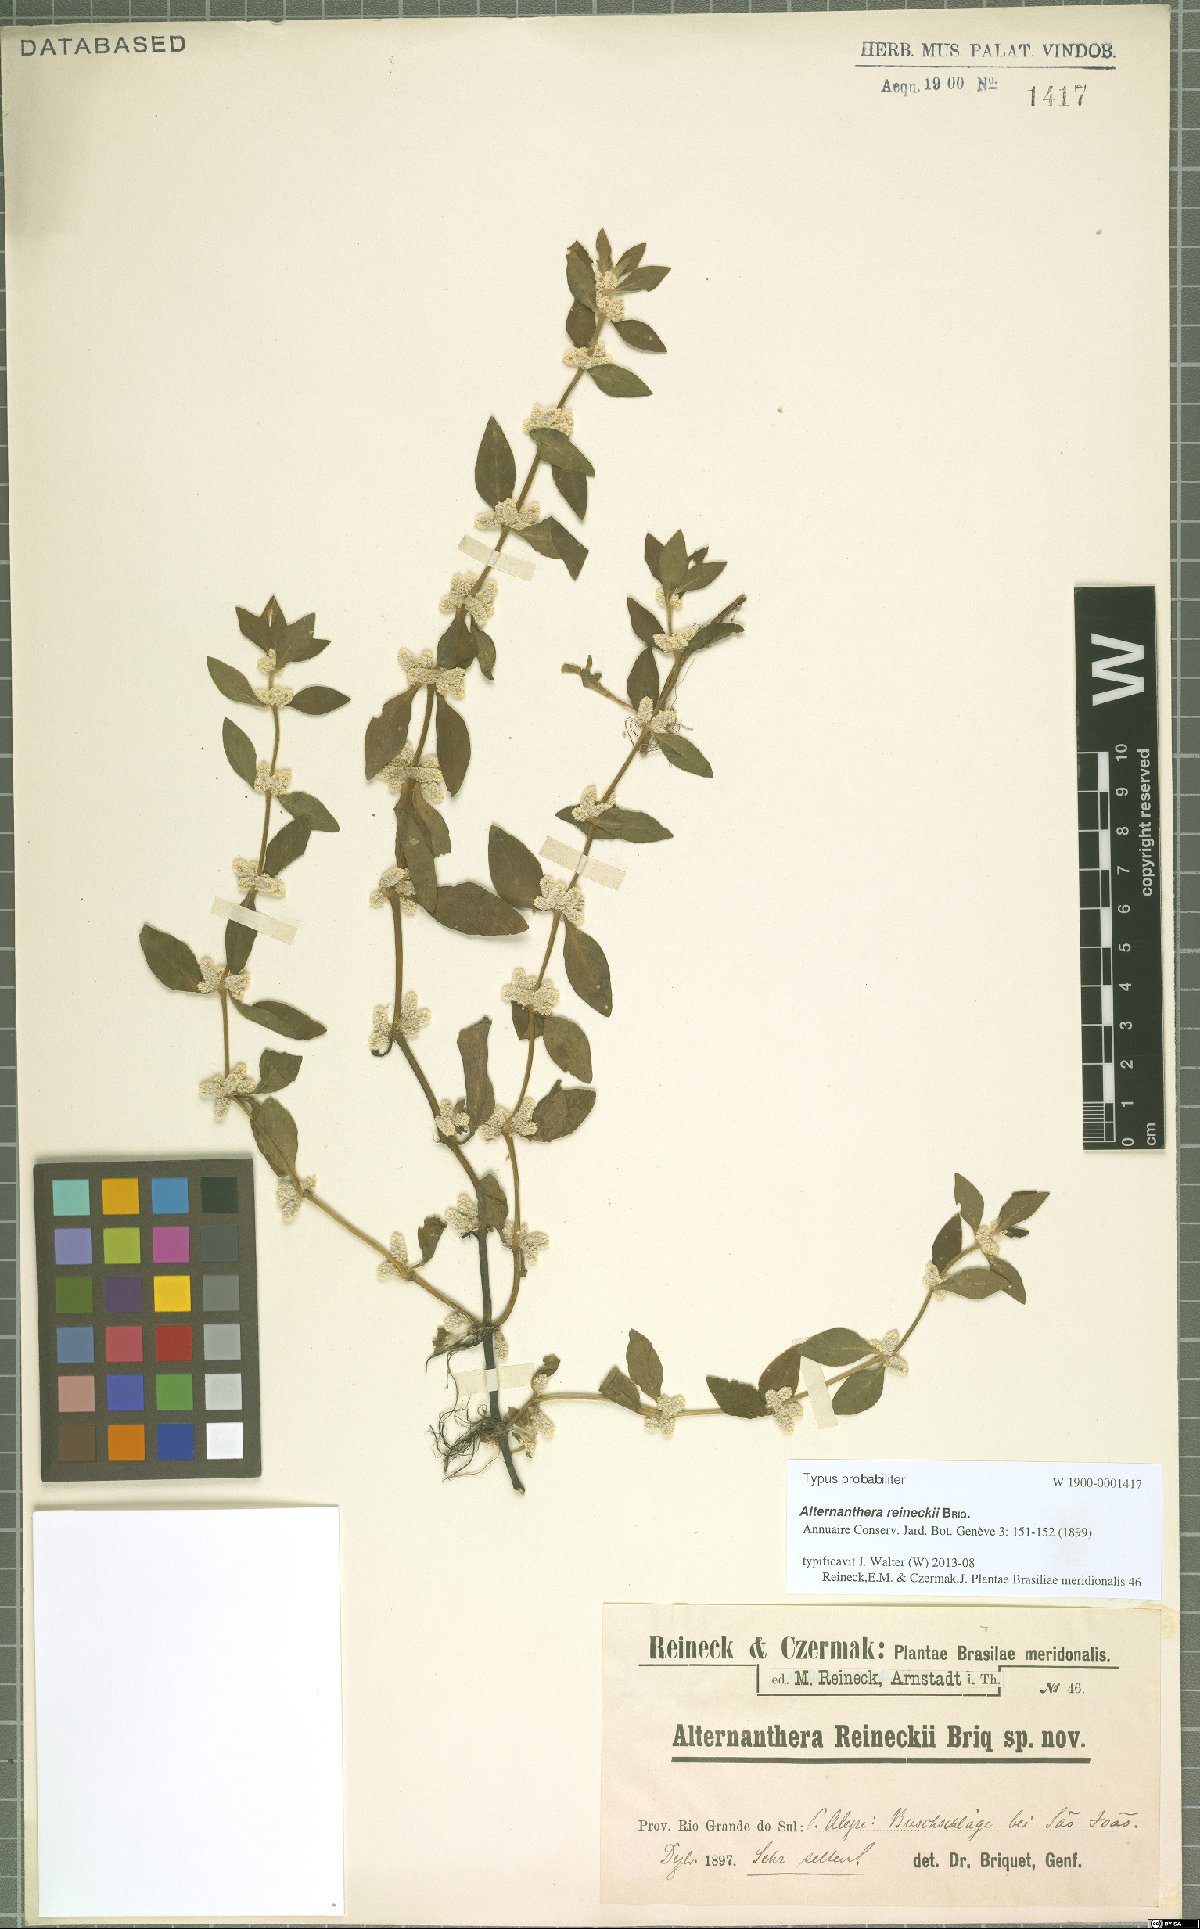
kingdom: Plantae
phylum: Tracheophyta
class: Magnoliopsida
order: Caryophyllales
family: Amaranthaceae
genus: Alternanthera
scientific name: Alternanthera reineckii
